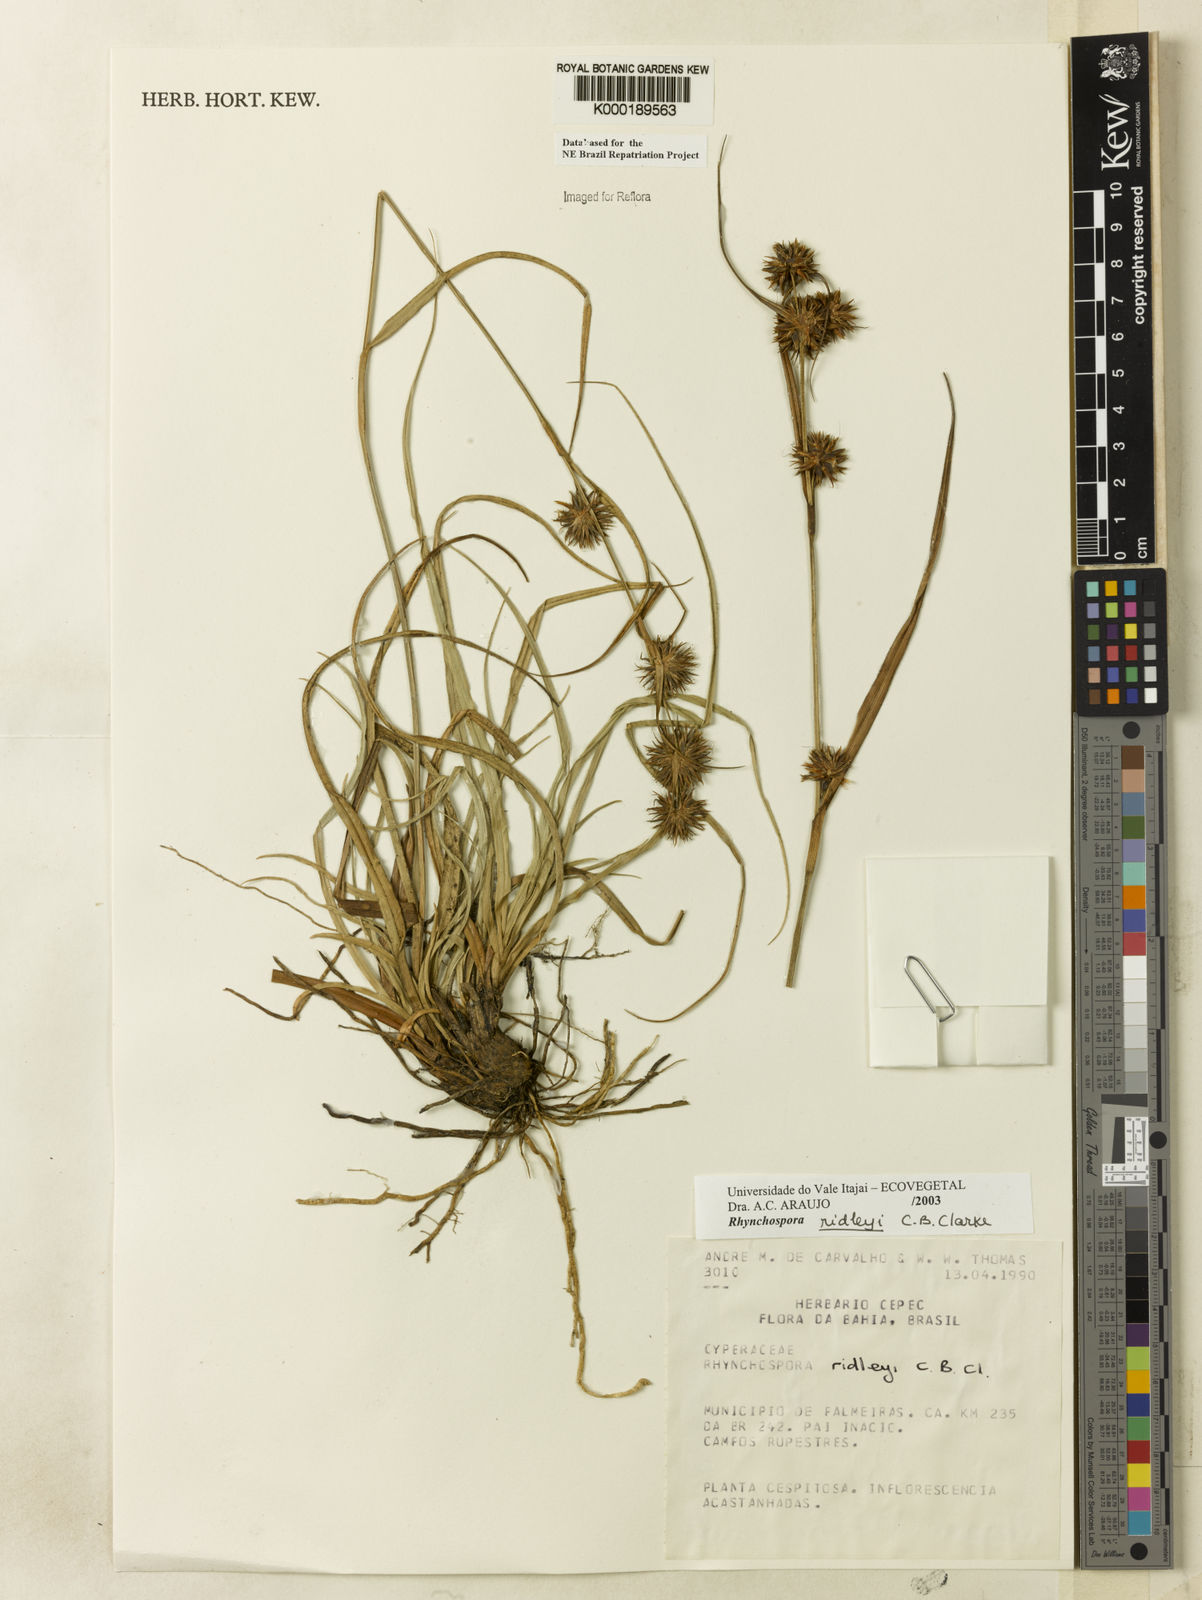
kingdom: Plantae
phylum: Tracheophyta
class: Liliopsida
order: Poales
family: Cyperaceae
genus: Rhynchospora
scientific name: Rhynchospora ridleyi
